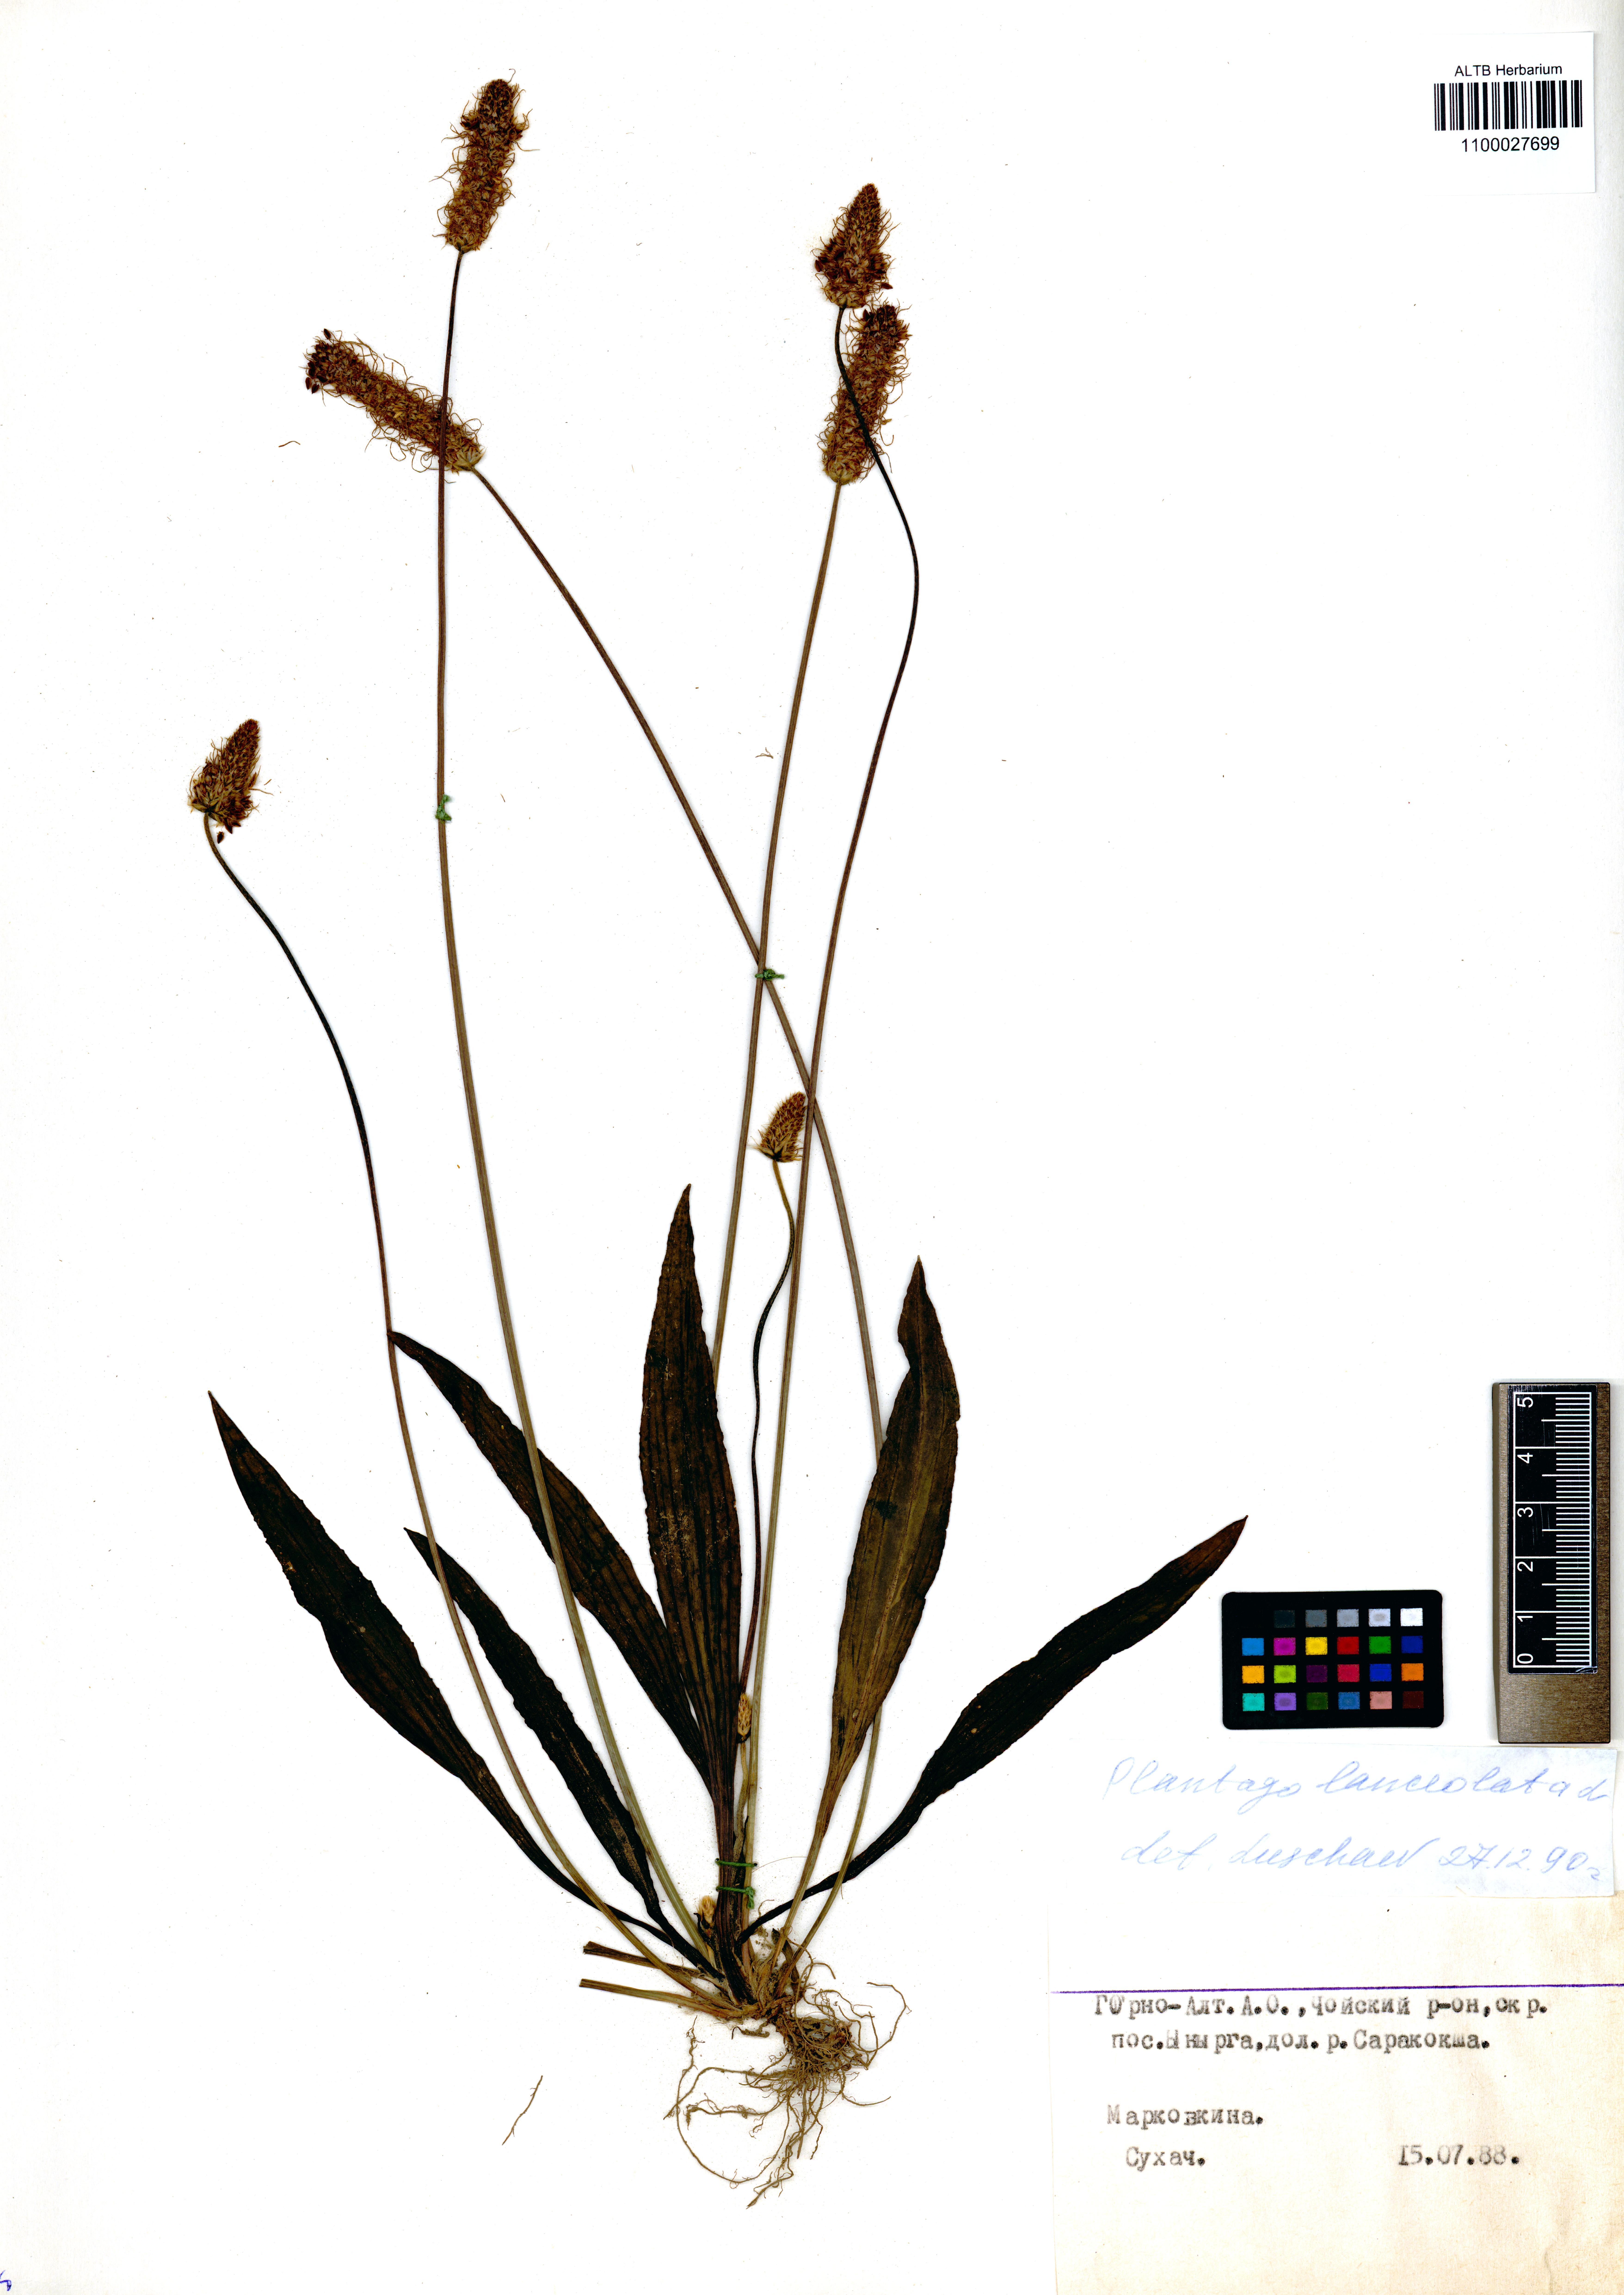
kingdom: Plantae
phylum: Tracheophyta
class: Magnoliopsida
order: Lamiales
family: Plantaginaceae
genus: Plantago
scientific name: Plantago lanceolata
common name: Ribwort plantain
